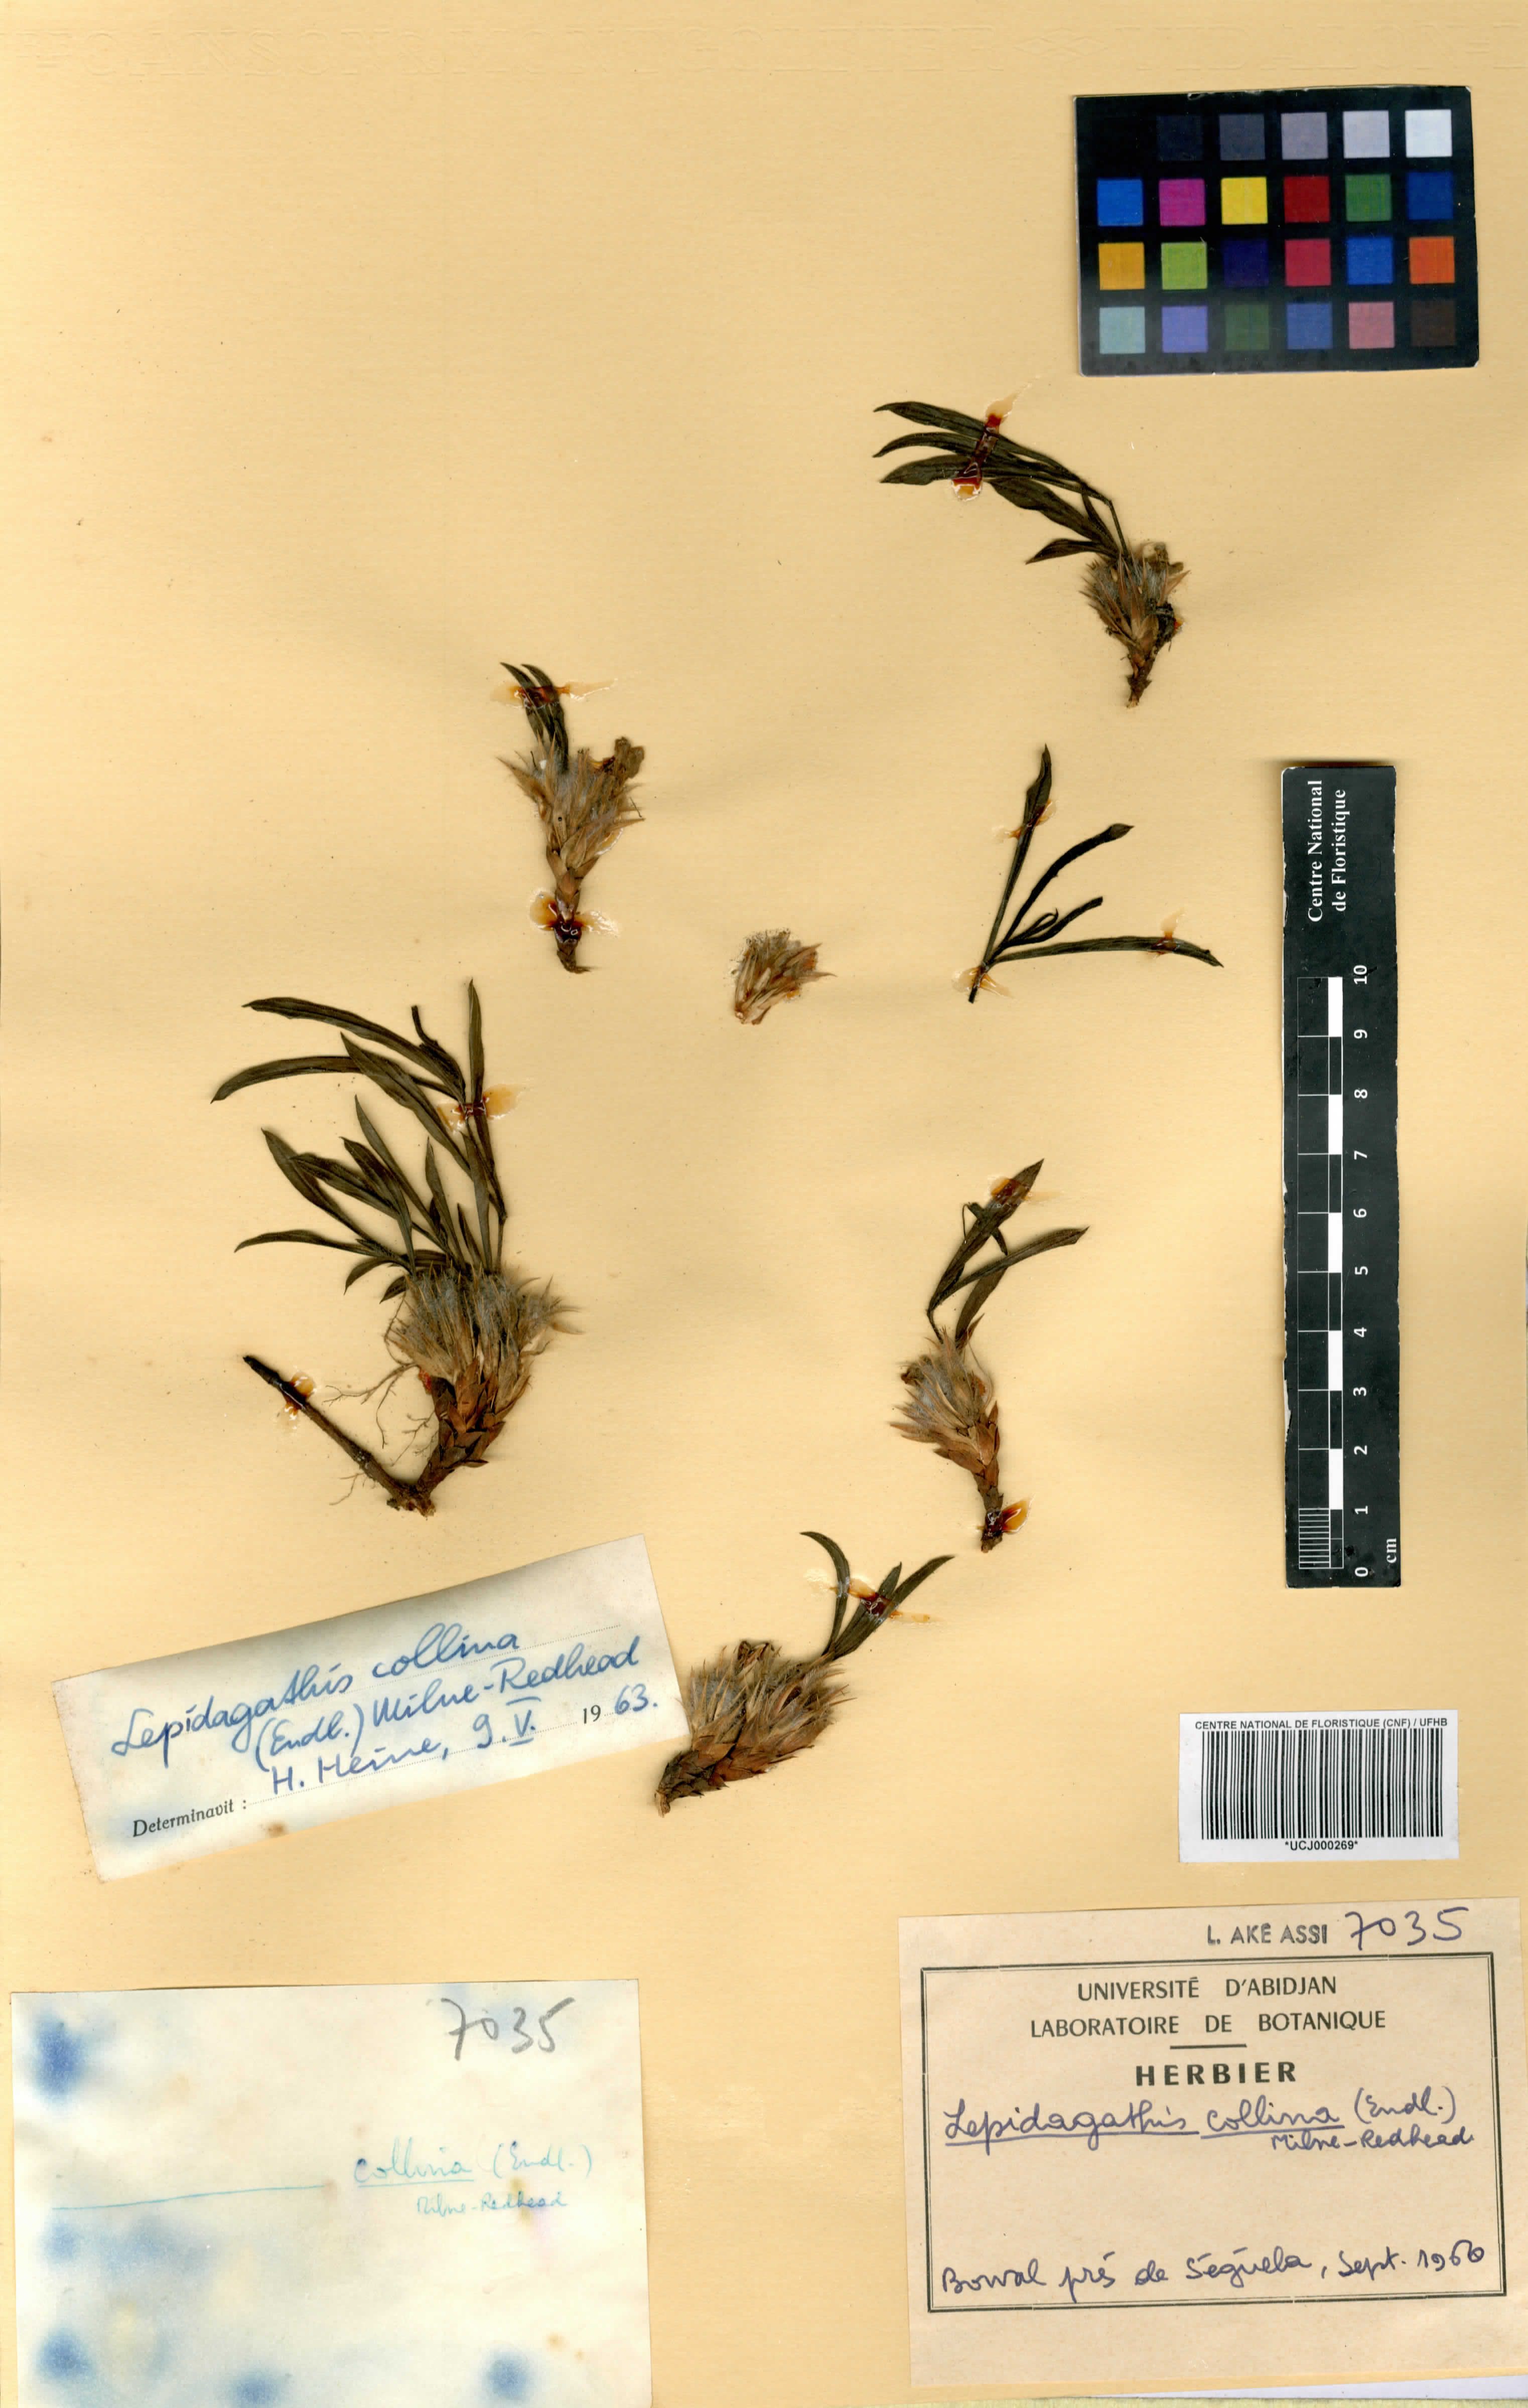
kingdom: Plantae
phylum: Tracheophyta
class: Magnoliopsida
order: Lamiales
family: Acanthaceae
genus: Lepidagathis
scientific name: Lepidagathis collina
